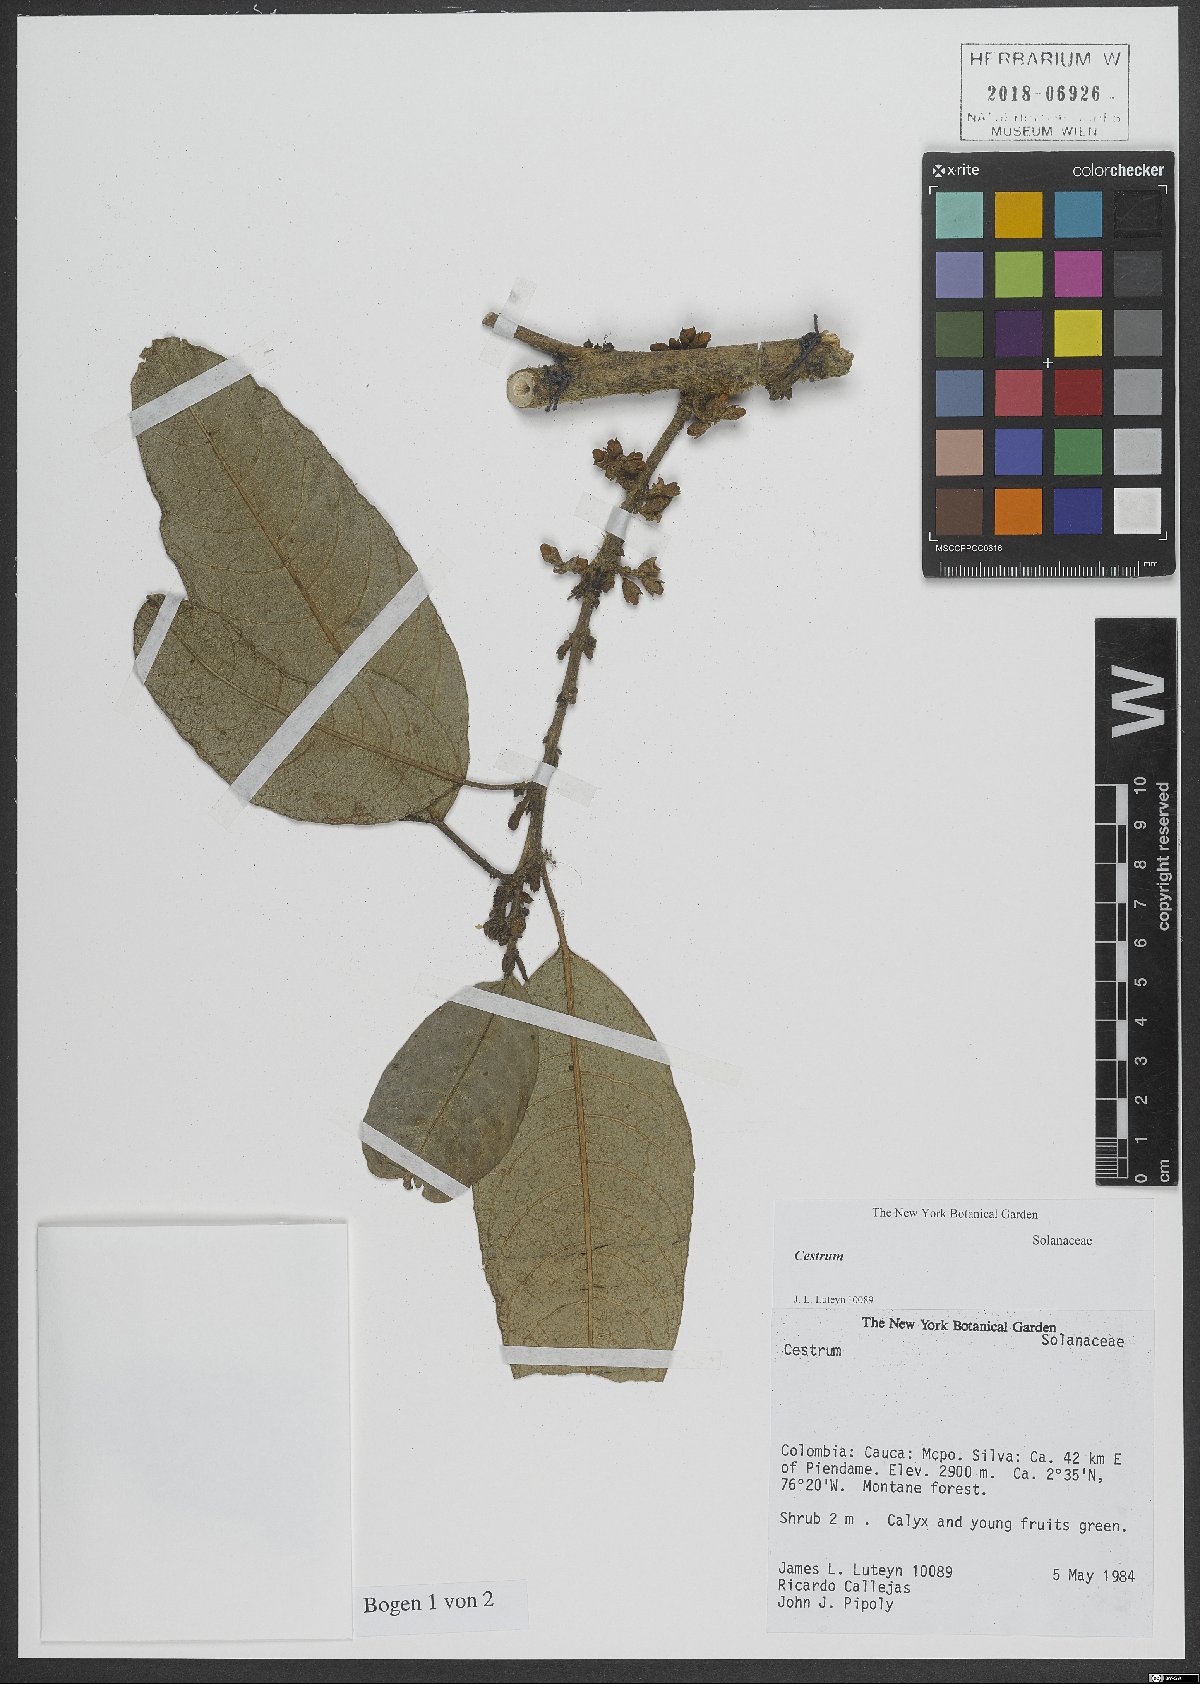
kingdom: Plantae
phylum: Tracheophyta
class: Magnoliopsida
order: Solanales
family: Solanaceae
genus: Cestrum
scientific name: Cestrum
